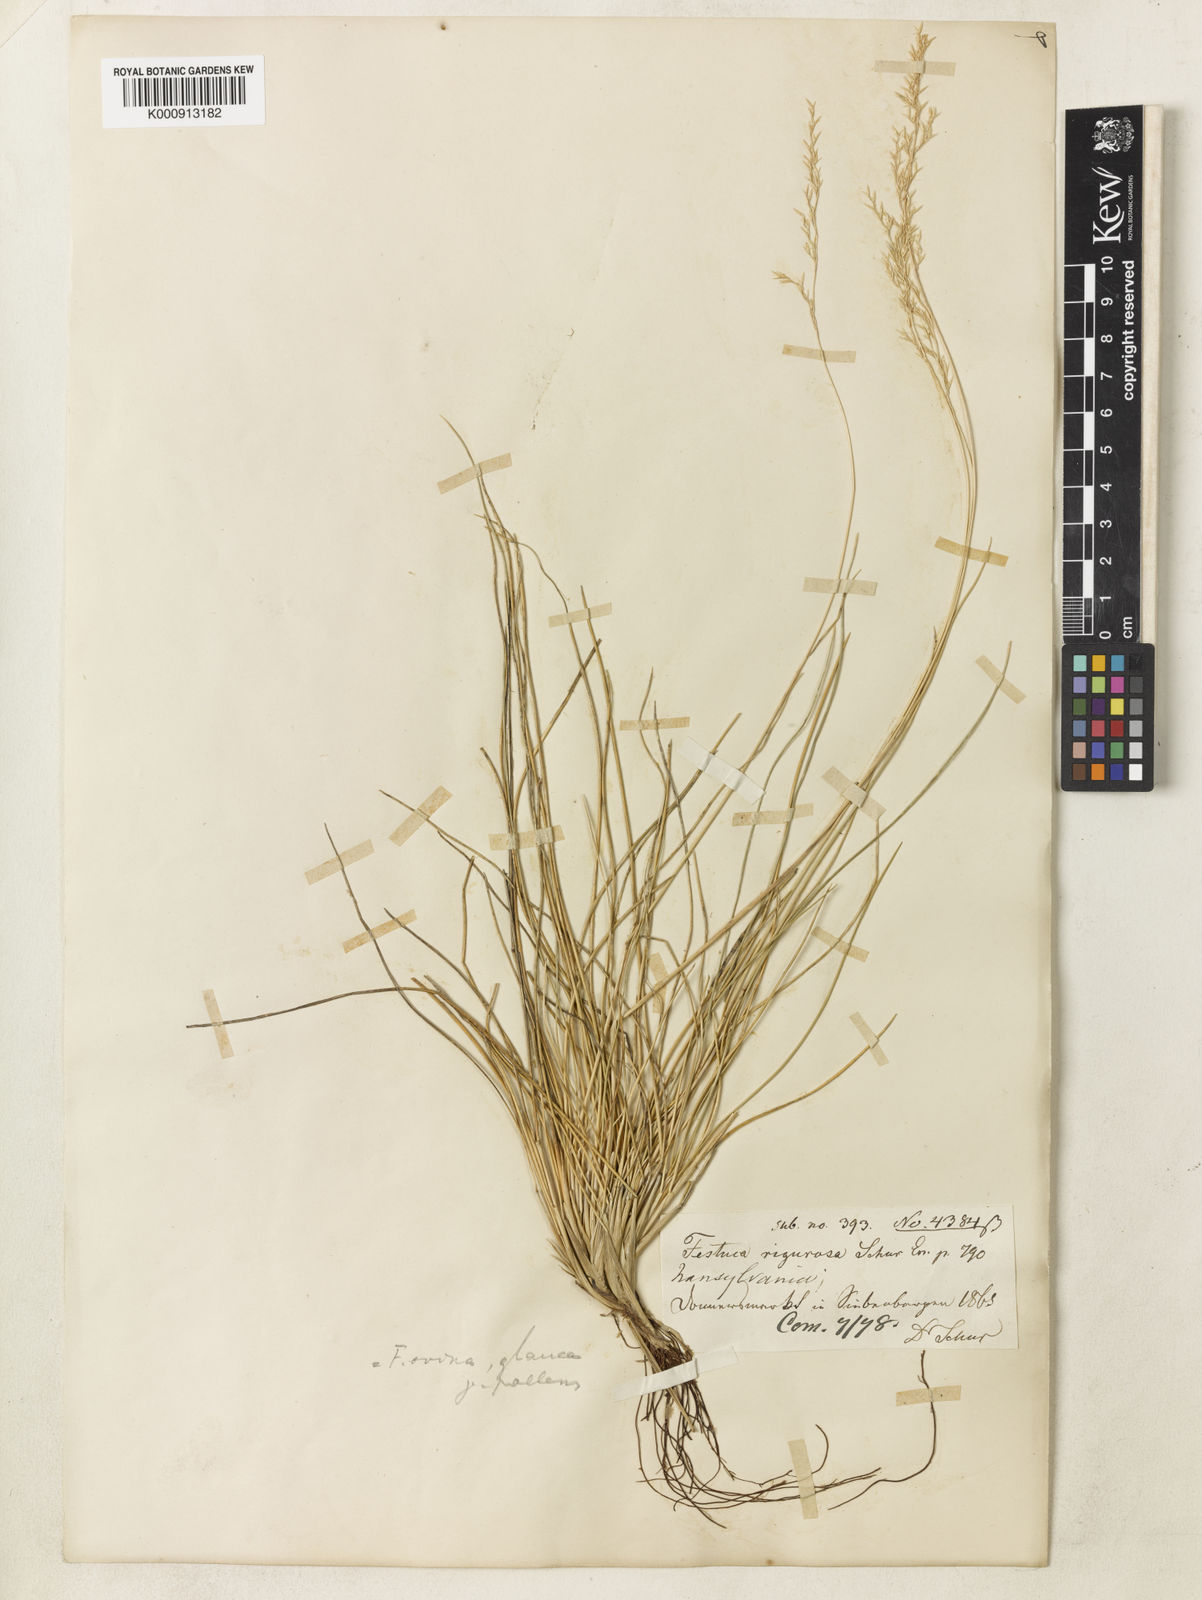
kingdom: Plantae
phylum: Tracheophyta
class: Liliopsida
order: Poales
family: Poaceae
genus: Festuca
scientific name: Festuca pallens
